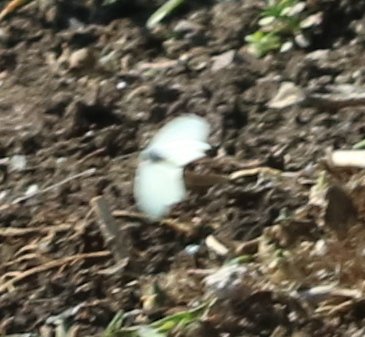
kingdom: Animalia
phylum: Arthropoda
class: Insecta
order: Lepidoptera
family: Pieridae
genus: Pieris
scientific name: Pieris rapae
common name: Cabbage White
